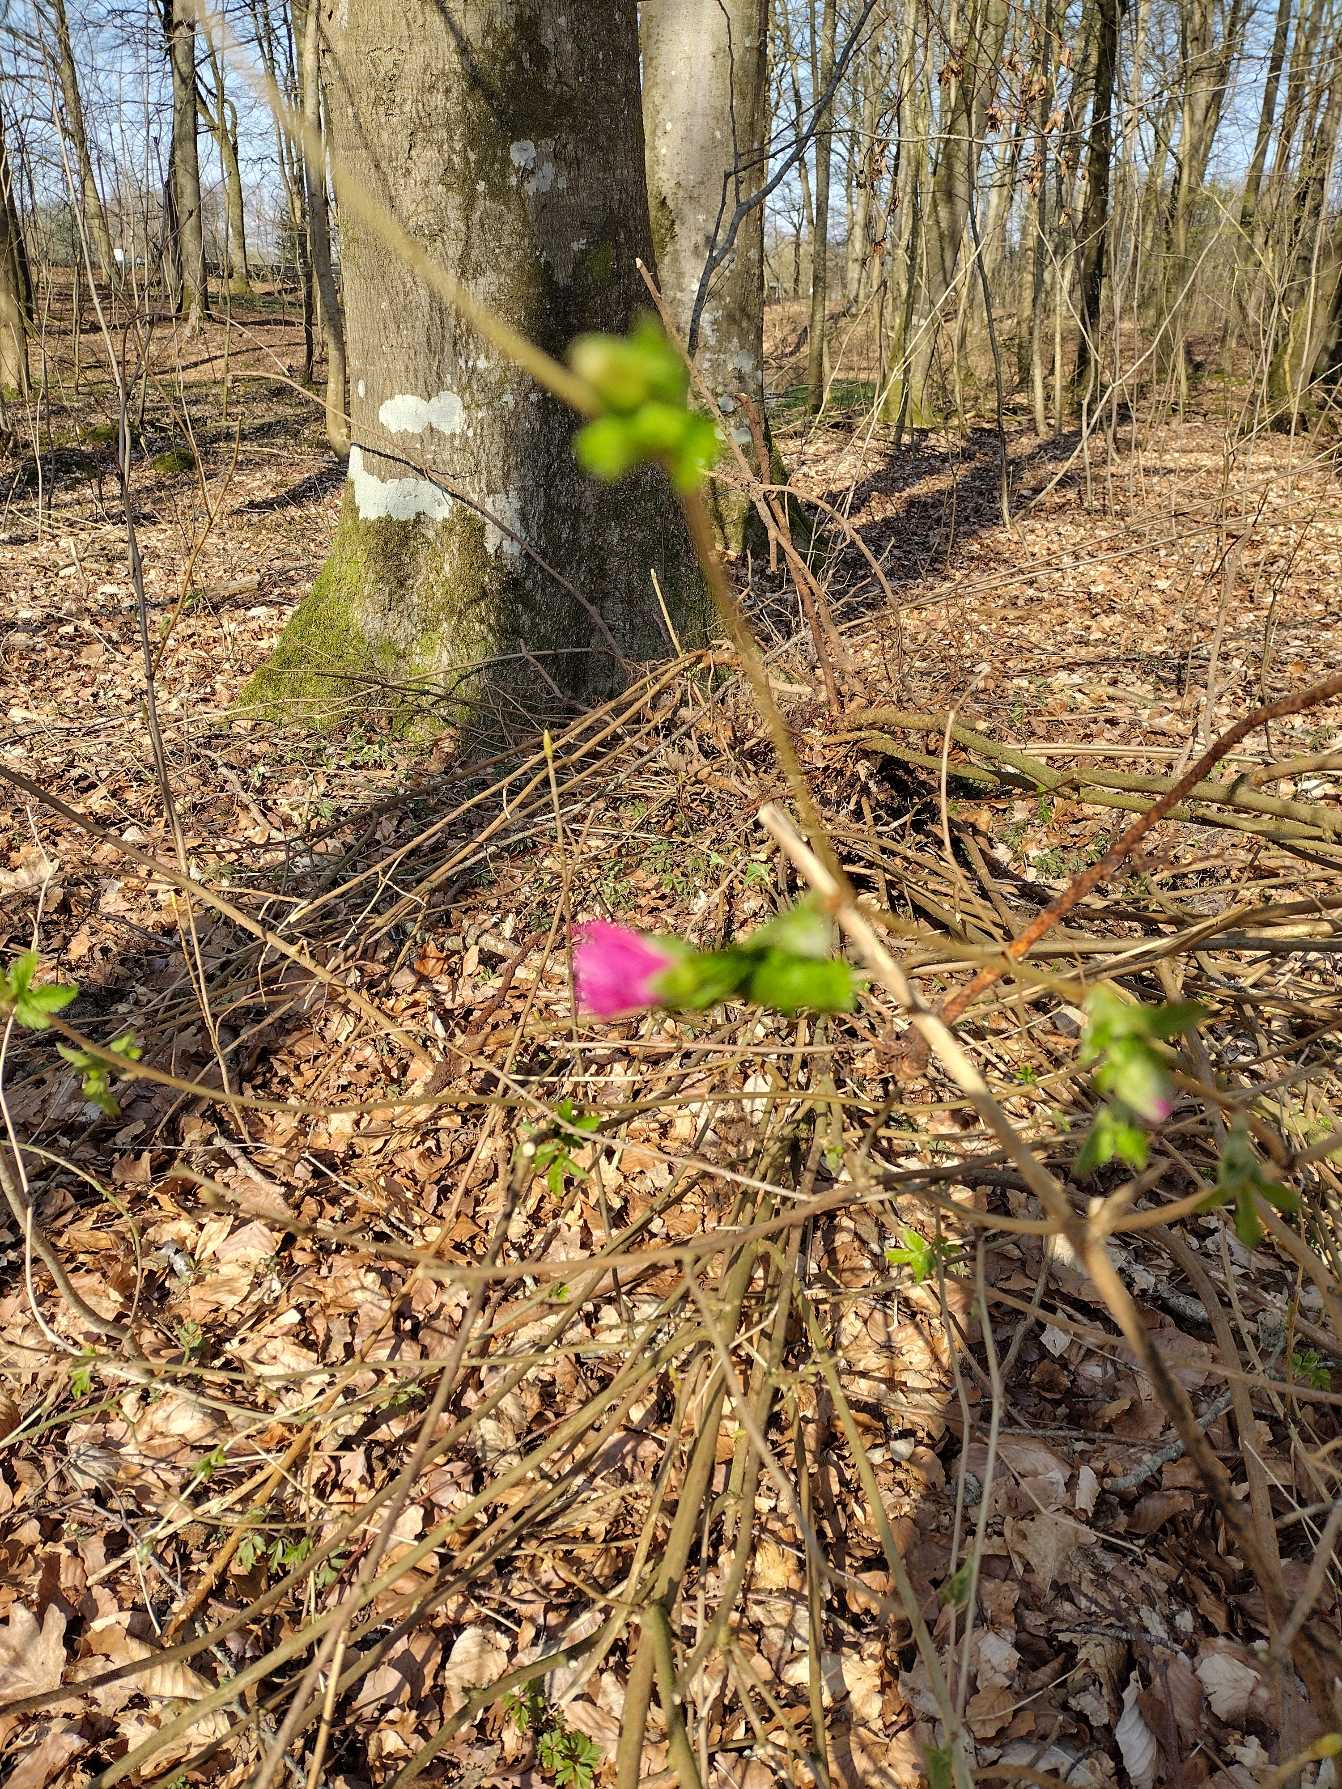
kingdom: Plantae
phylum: Tracheophyta
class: Magnoliopsida
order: Rosales
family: Rosaceae
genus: Rubus
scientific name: Rubus spectabilis
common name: Laksebær
